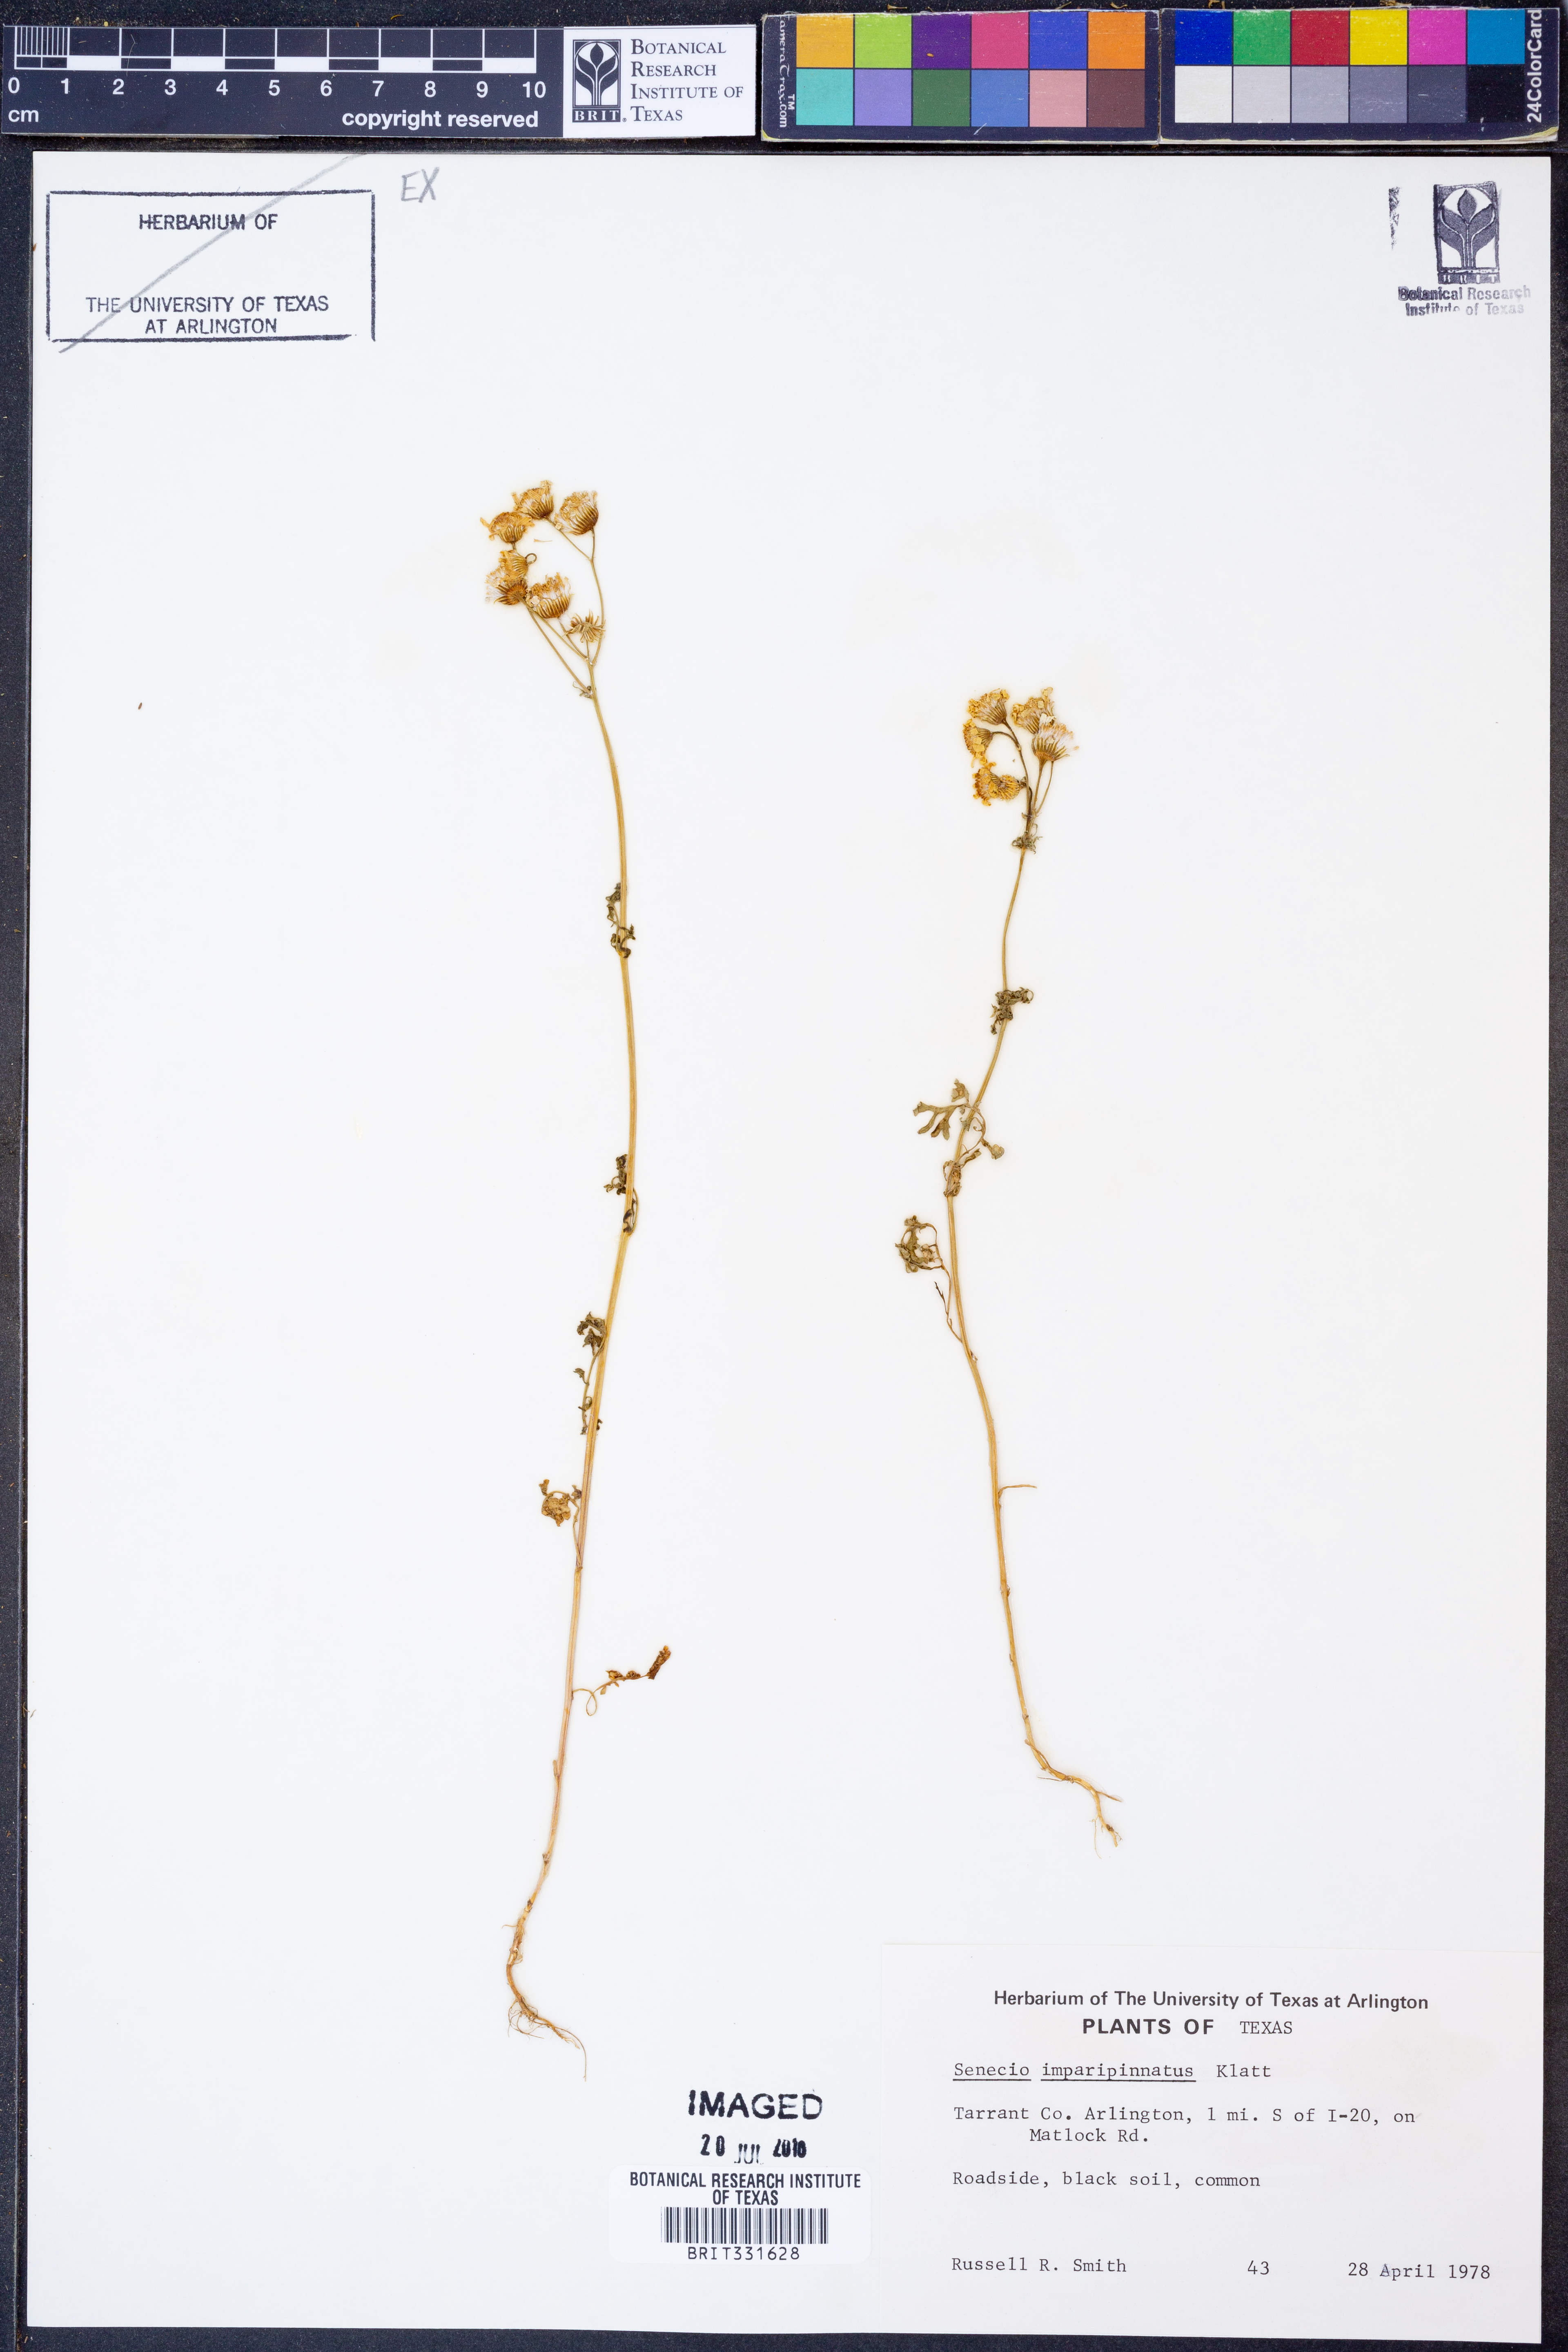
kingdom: Plantae
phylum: Tracheophyta
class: Magnoliopsida
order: Asterales
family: Asteraceae
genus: Packera
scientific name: Packera tampicana
